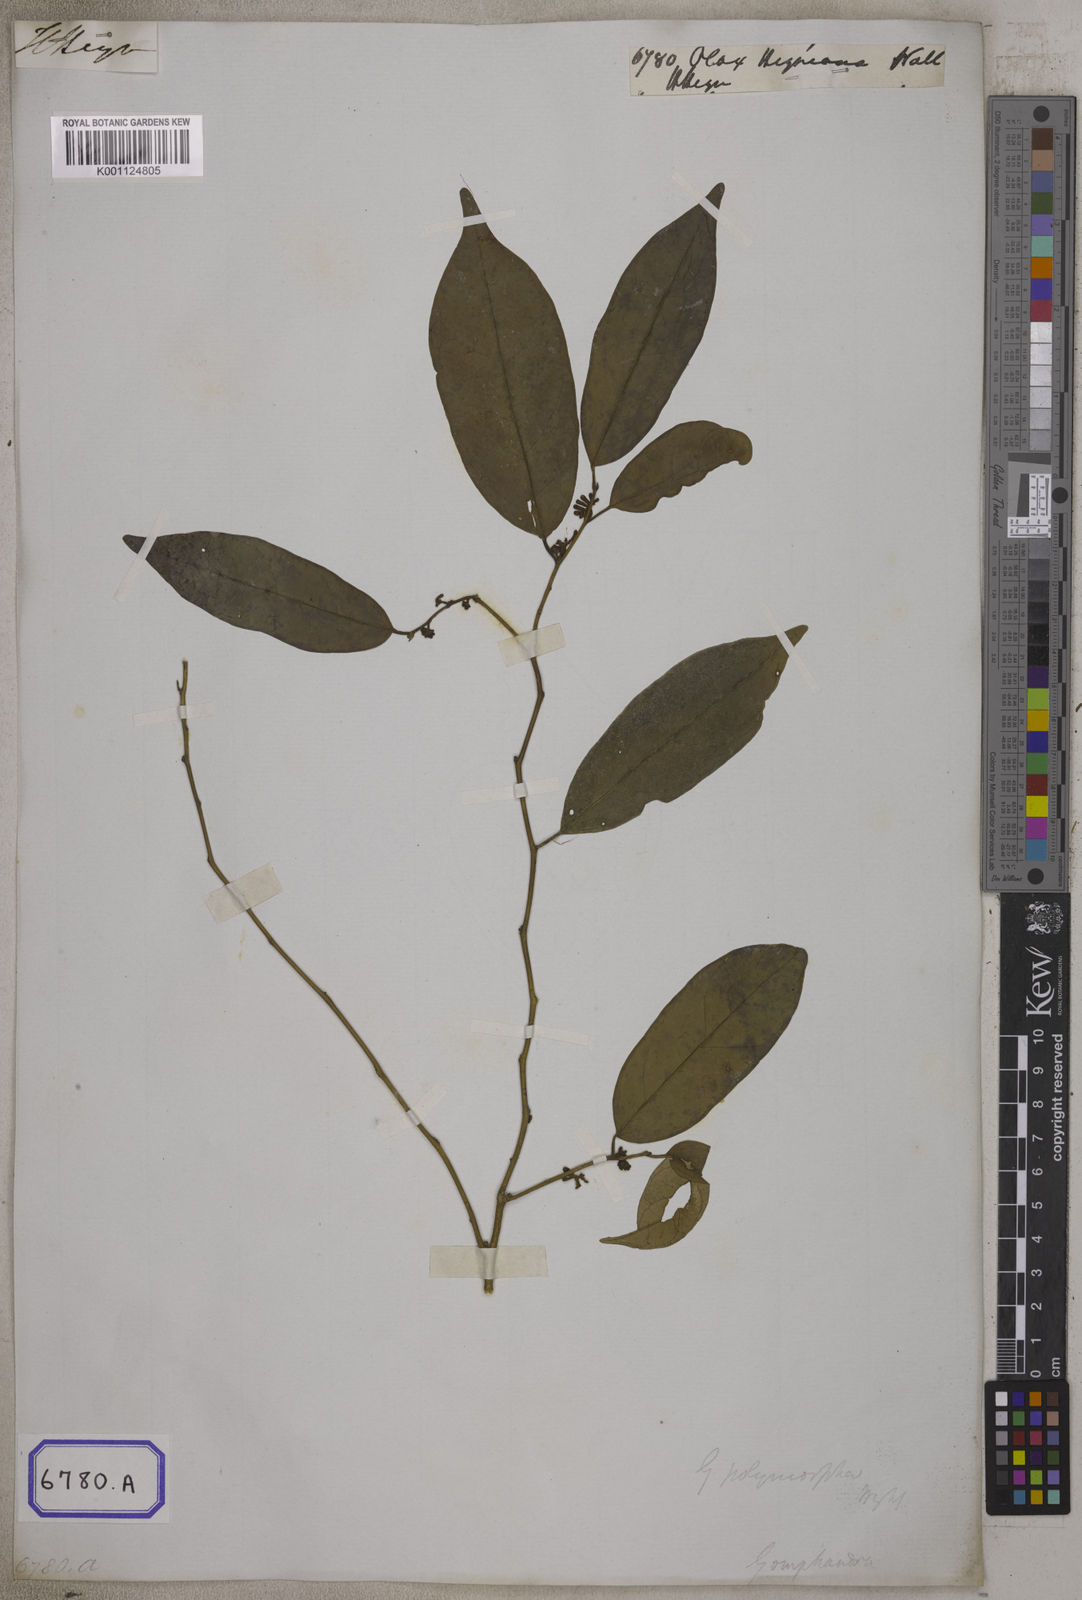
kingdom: Plantae
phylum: Tracheophyta
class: Magnoliopsida
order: Santalales
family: Olacaceae
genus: Olax
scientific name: Olax acuminata
